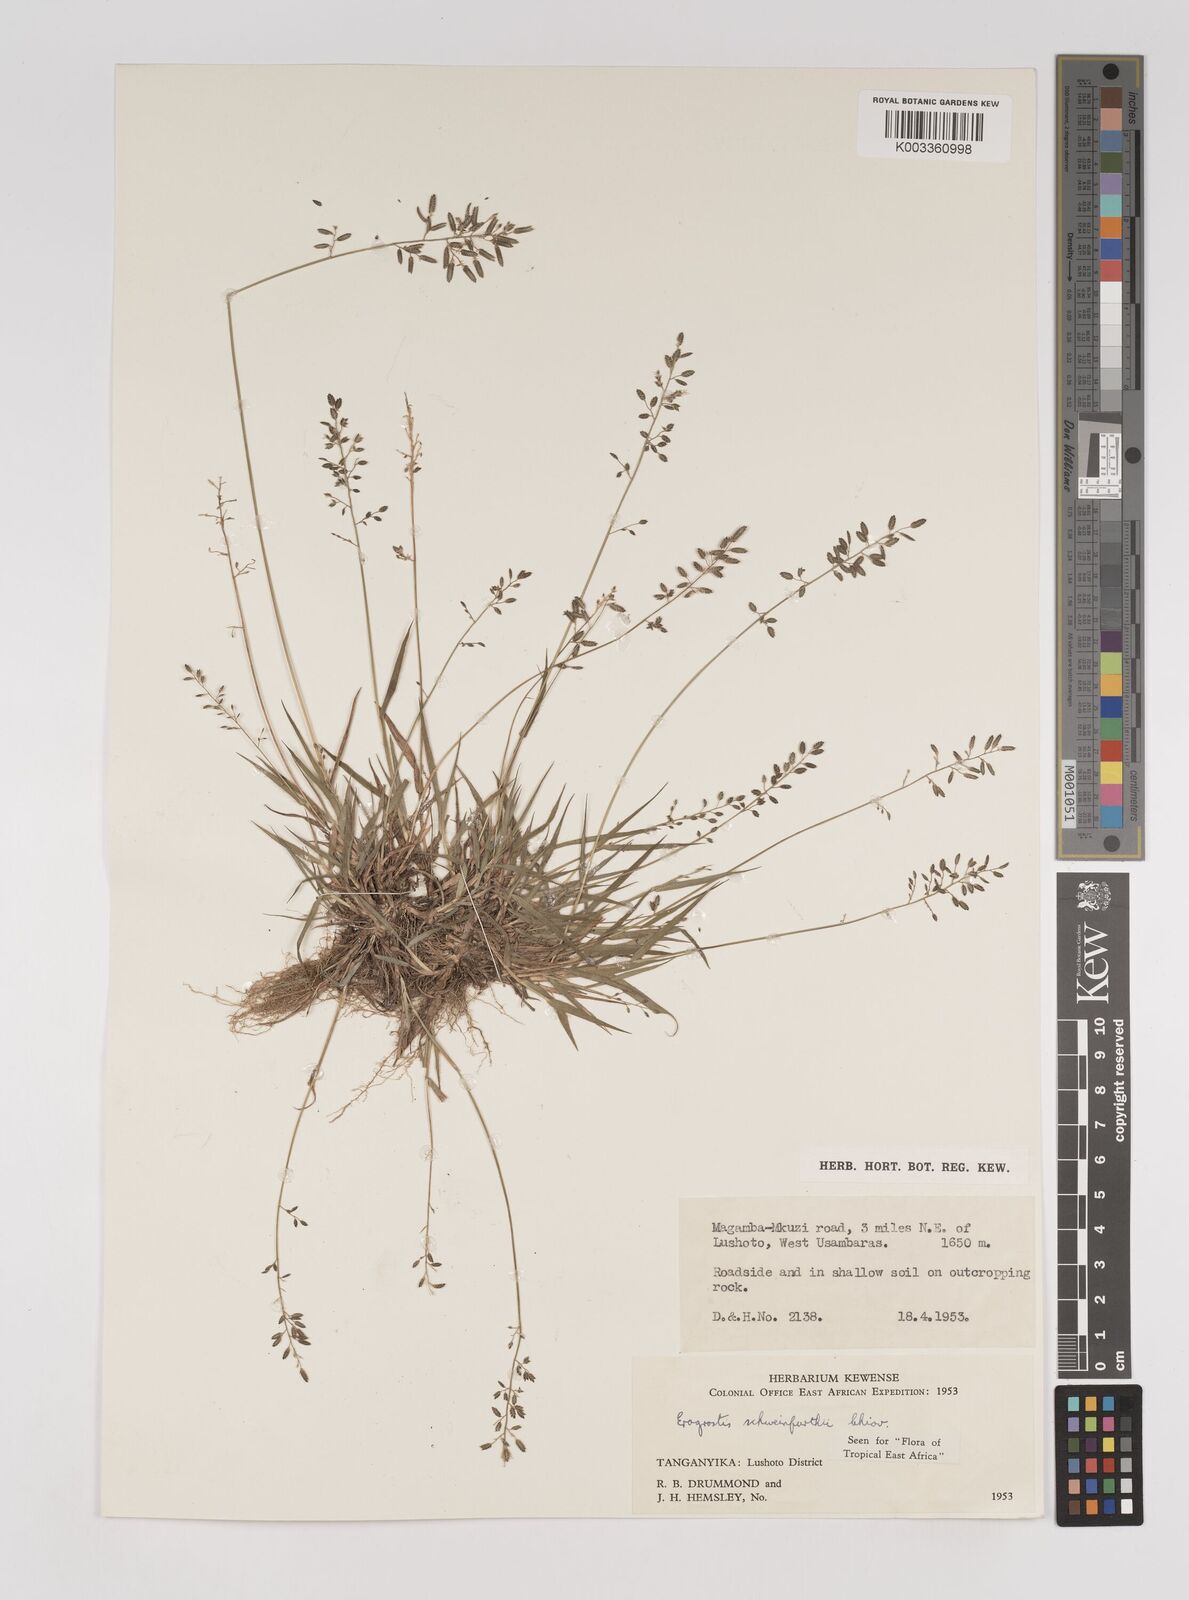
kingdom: Plantae
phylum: Tracheophyta
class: Liliopsida
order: Poales
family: Poaceae
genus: Eragrostis
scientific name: Eragrostis schweinfurthii
